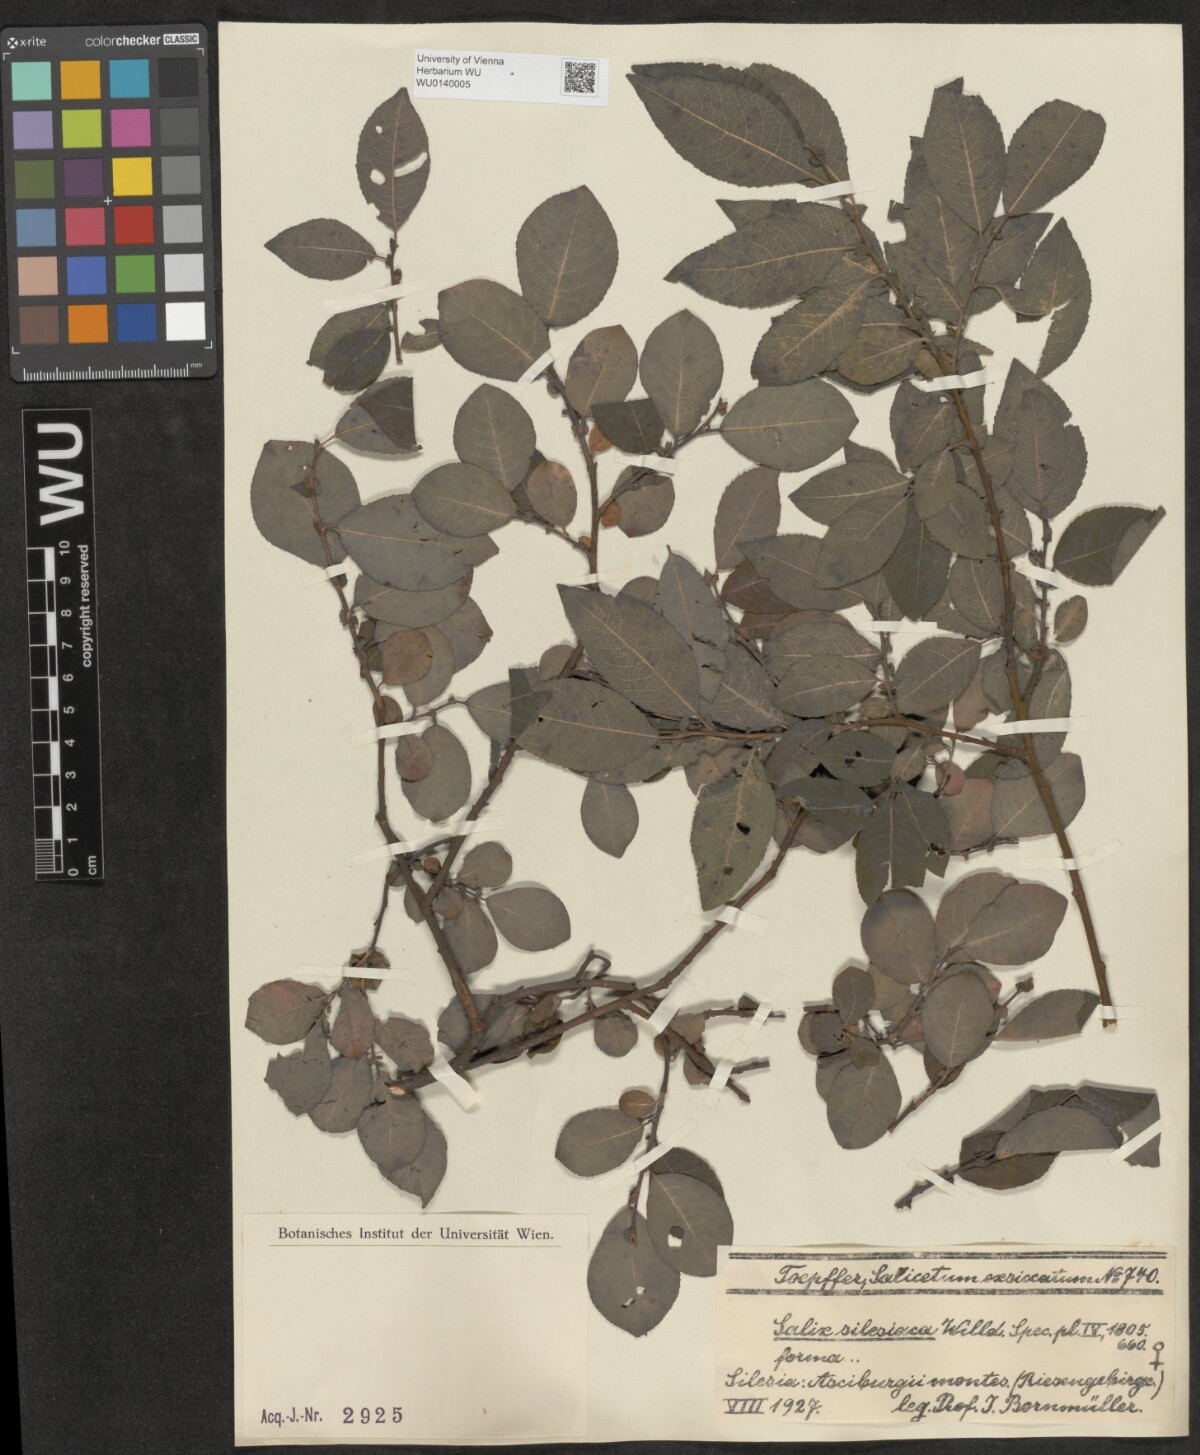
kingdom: Plantae
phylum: Tracheophyta
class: Magnoliopsida
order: Malpighiales
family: Salicaceae
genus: Salix
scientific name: Salix silesiaca
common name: Silesian willow
